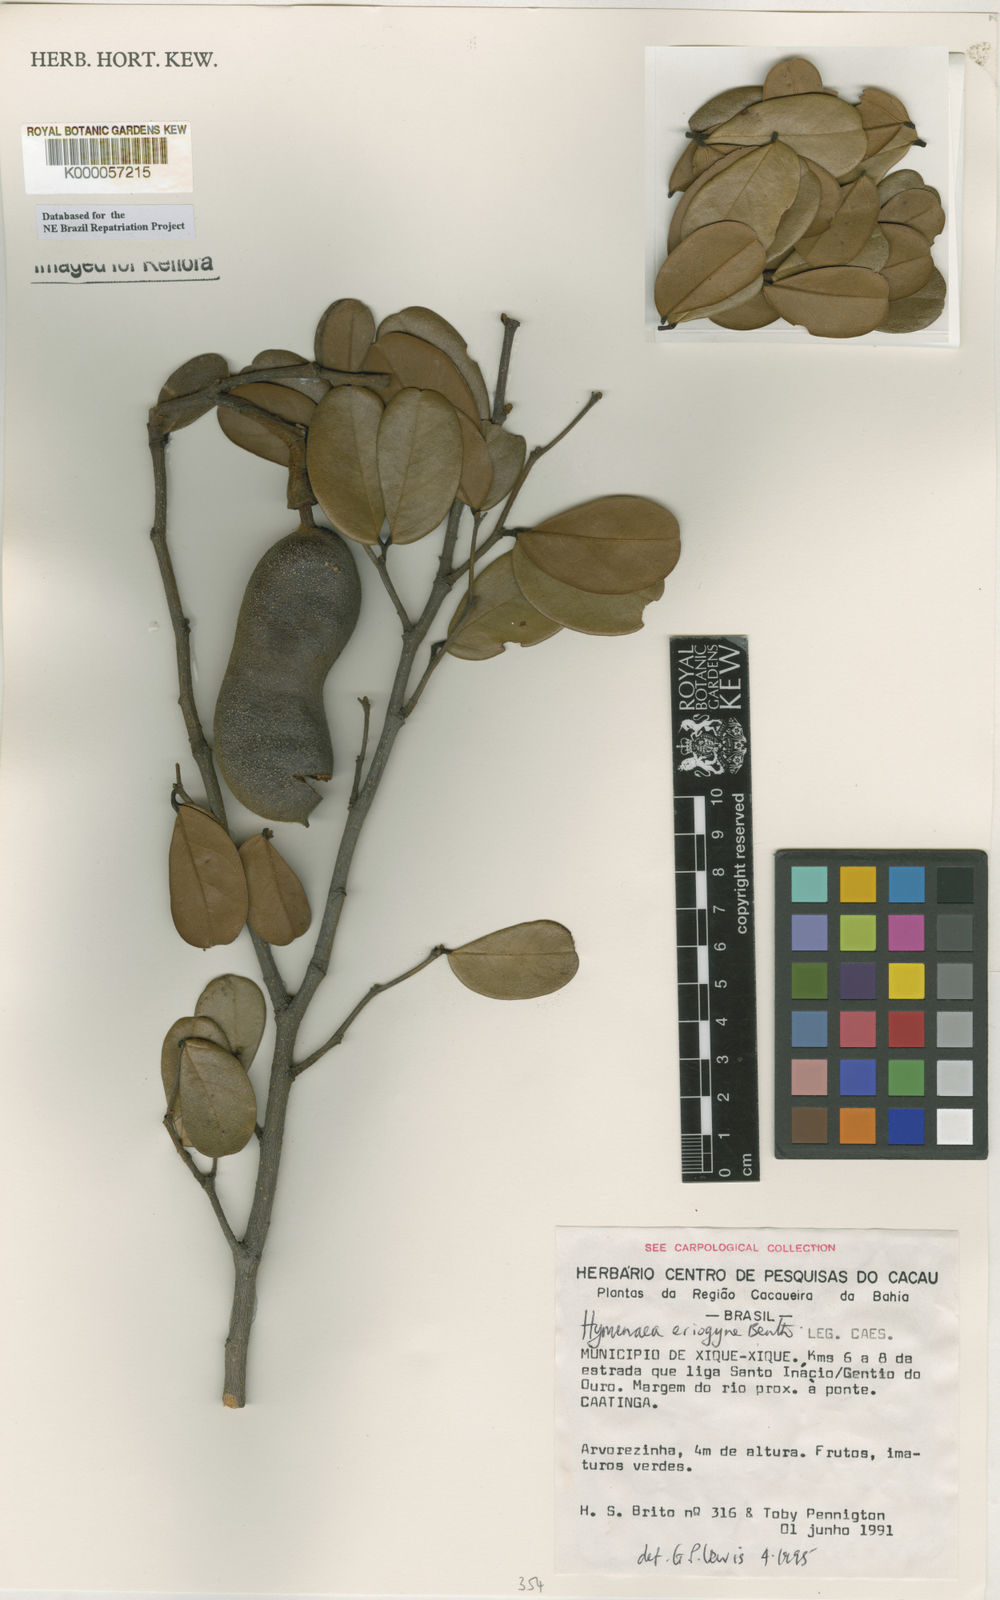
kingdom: Plantae
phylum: Tracheophyta
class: Magnoliopsida
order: Fabales
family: Fabaceae
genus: Hymenaea
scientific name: Hymenaea eriogyne
